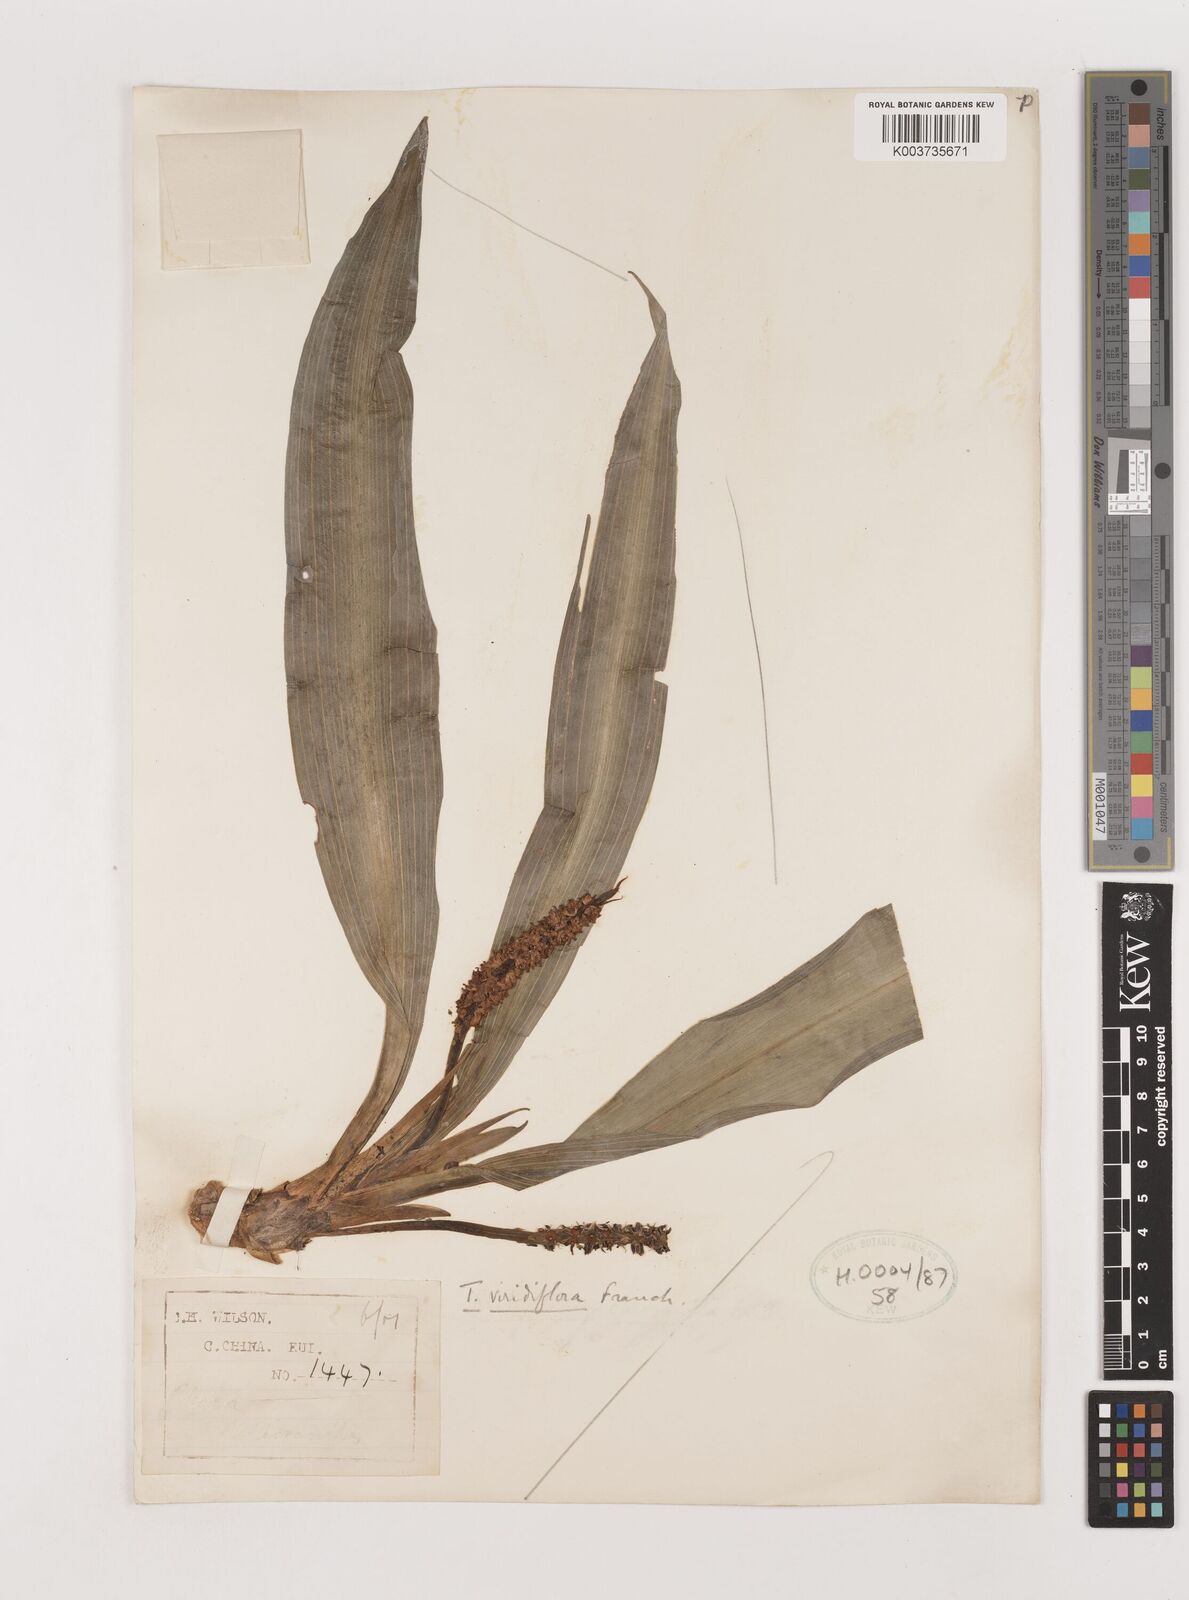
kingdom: Plantae
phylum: Tracheophyta
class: Liliopsida
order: Asparagales
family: Asparagaceae
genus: Rohdea
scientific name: Rohdea fargesii
